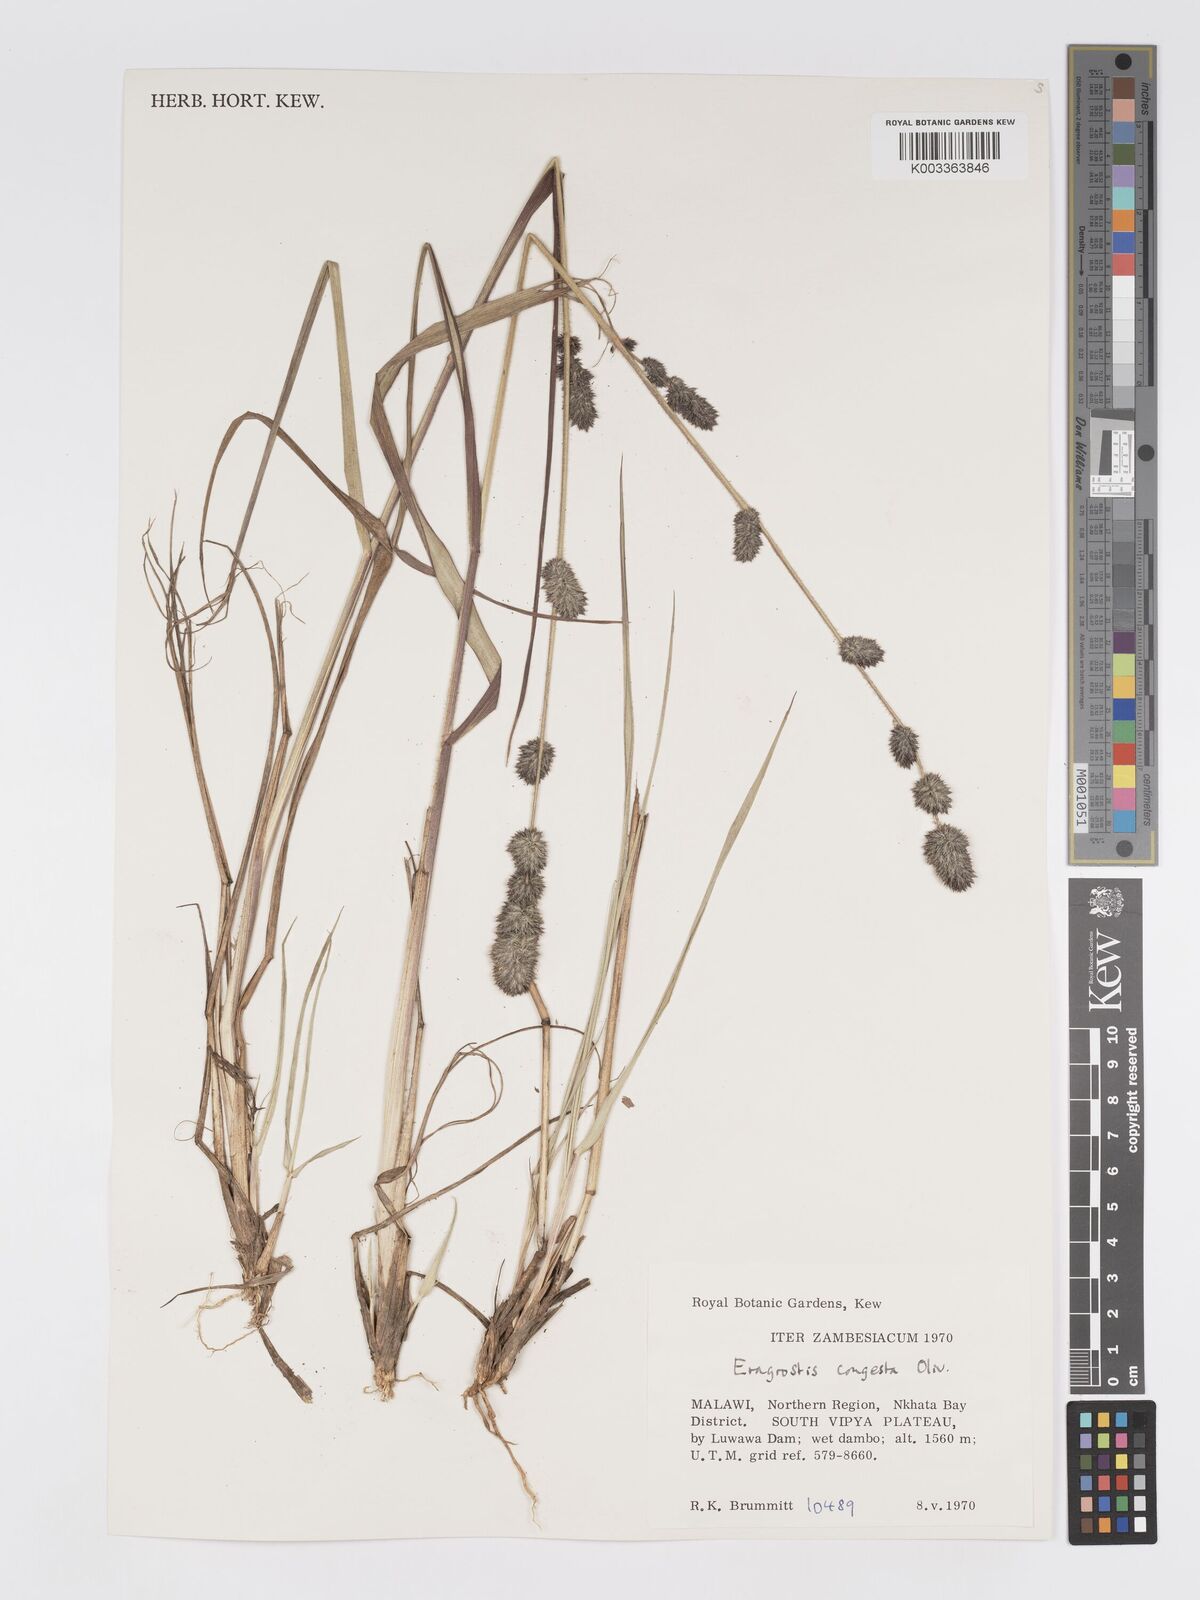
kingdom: Plantae
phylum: Tracheophyta
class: Liliopsida
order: Poales
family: Poaceae
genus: Eragrostis
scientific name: Eragrostis congesta
